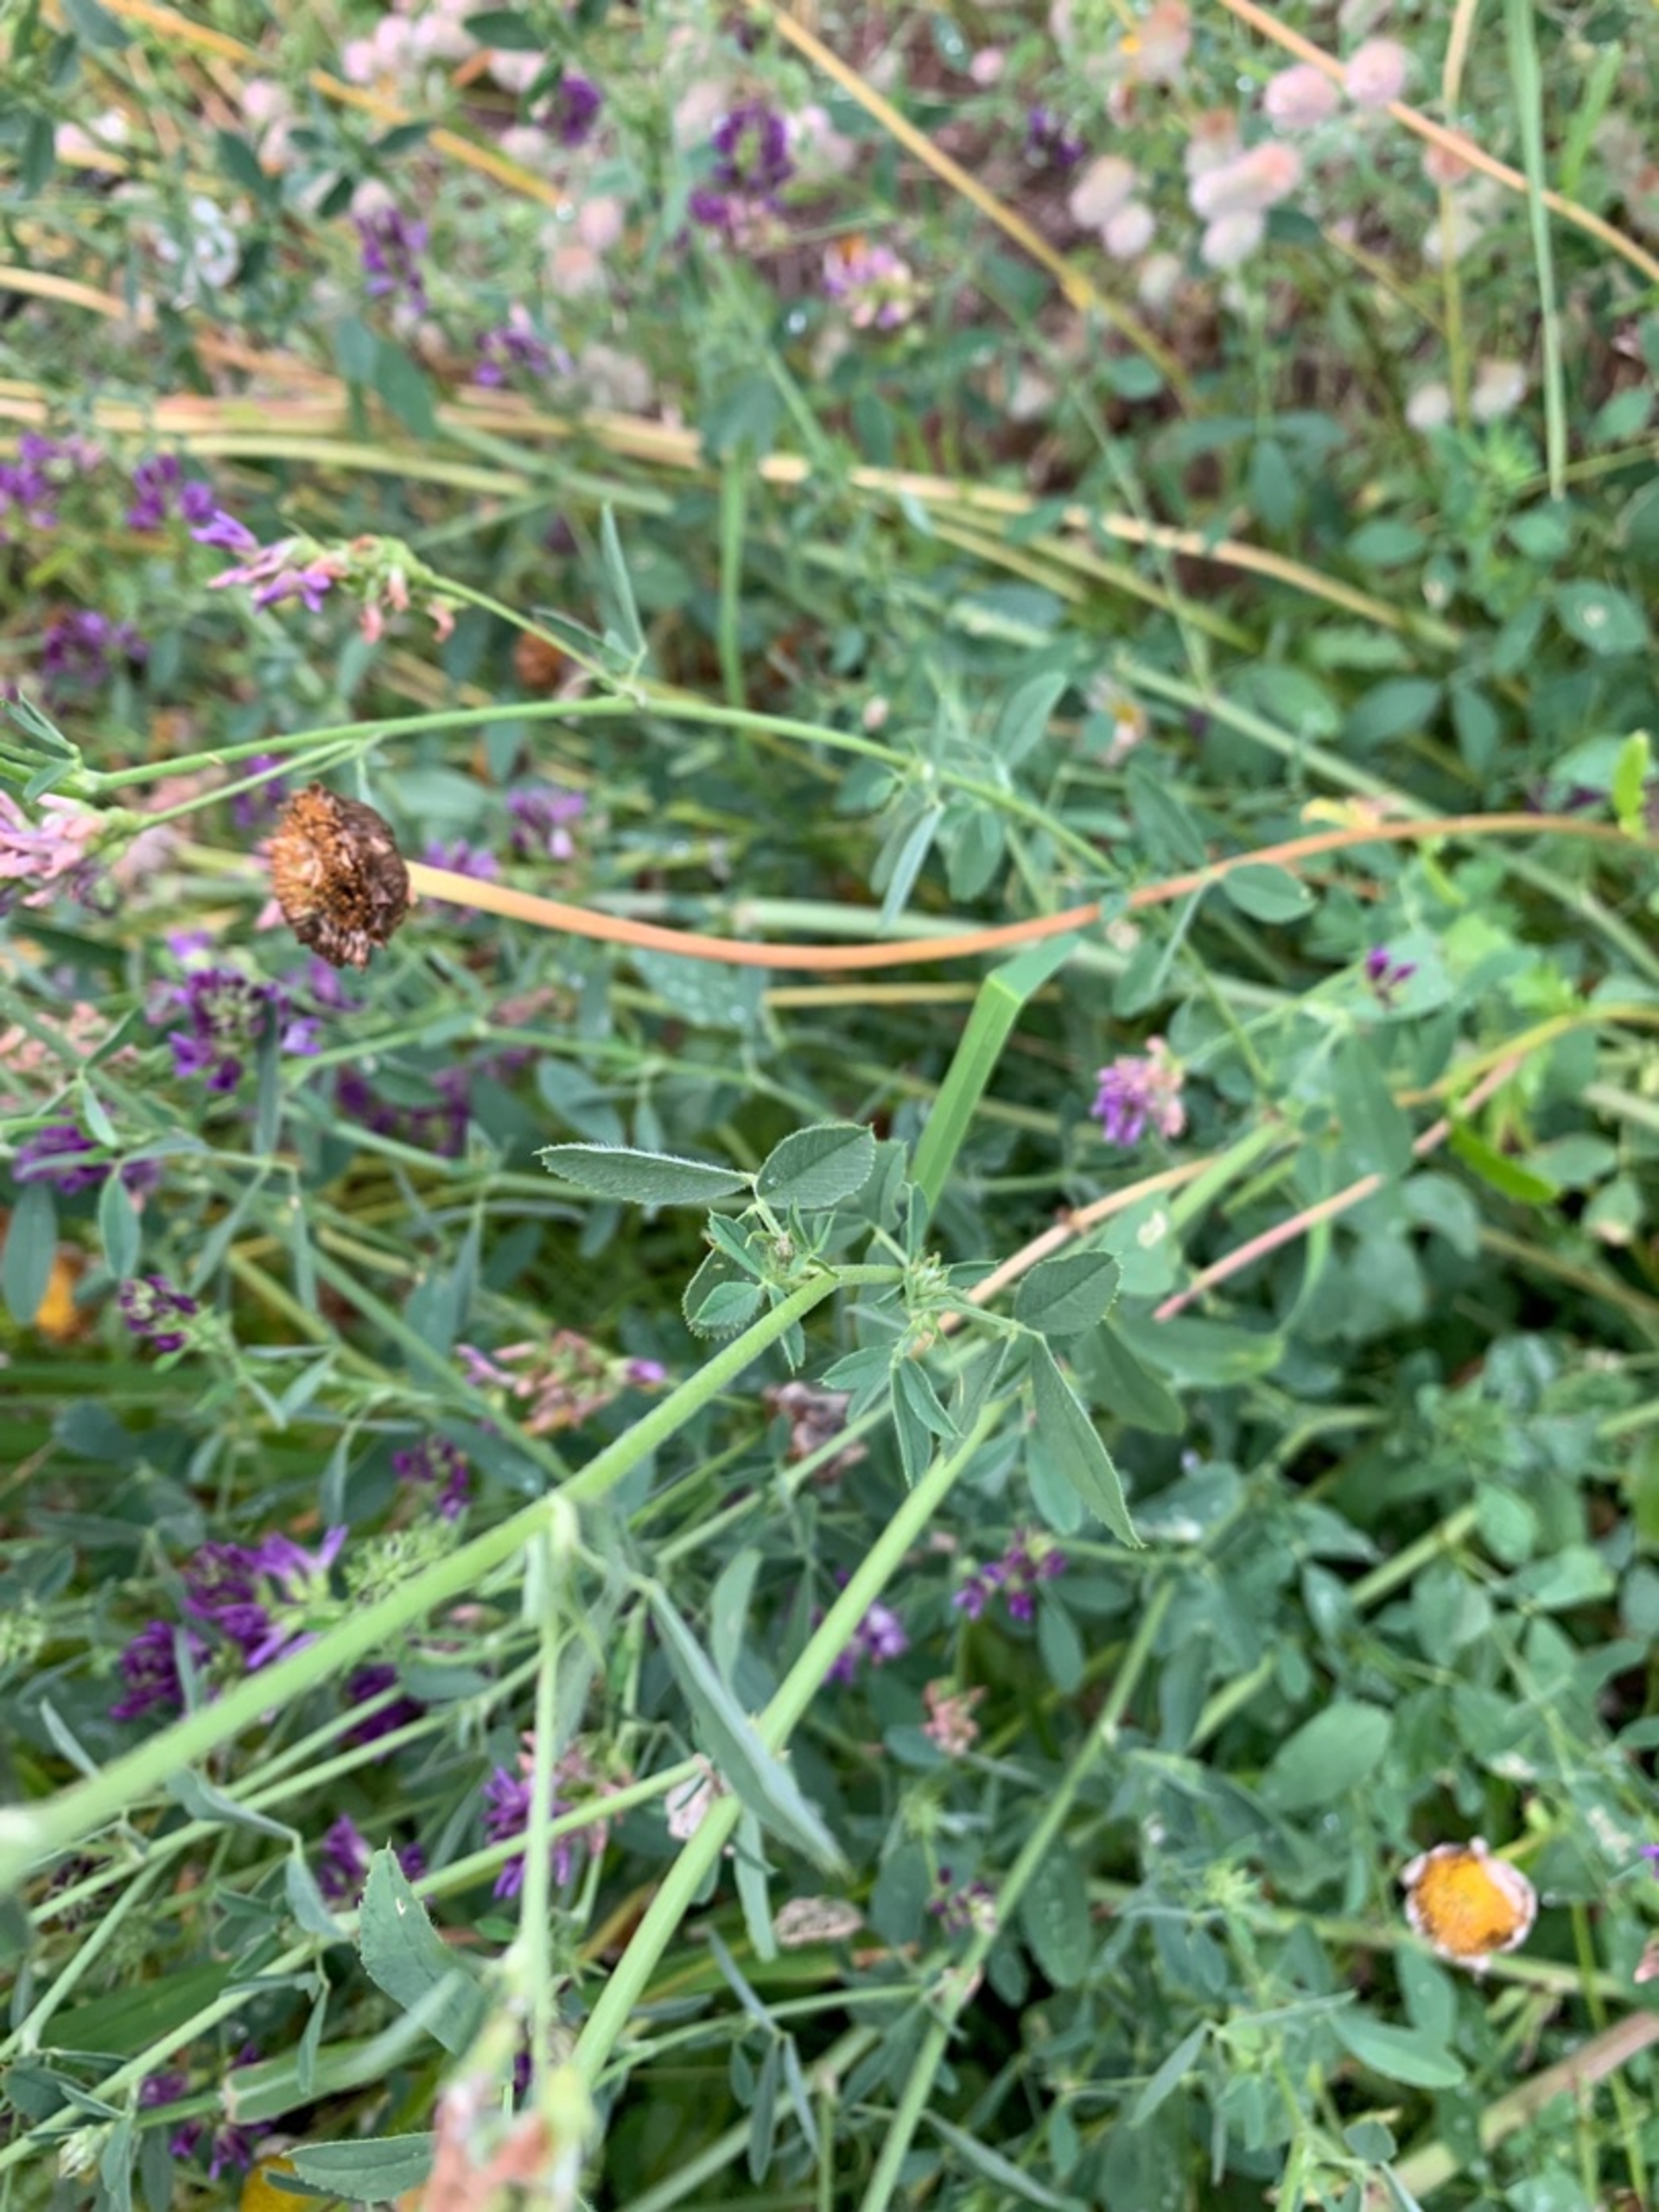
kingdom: Plantae
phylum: Tracheophyta
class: Magnoliopsida
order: Fabales
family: Fabaceae
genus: Medicago
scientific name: Medicago sativa
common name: Lucerne
